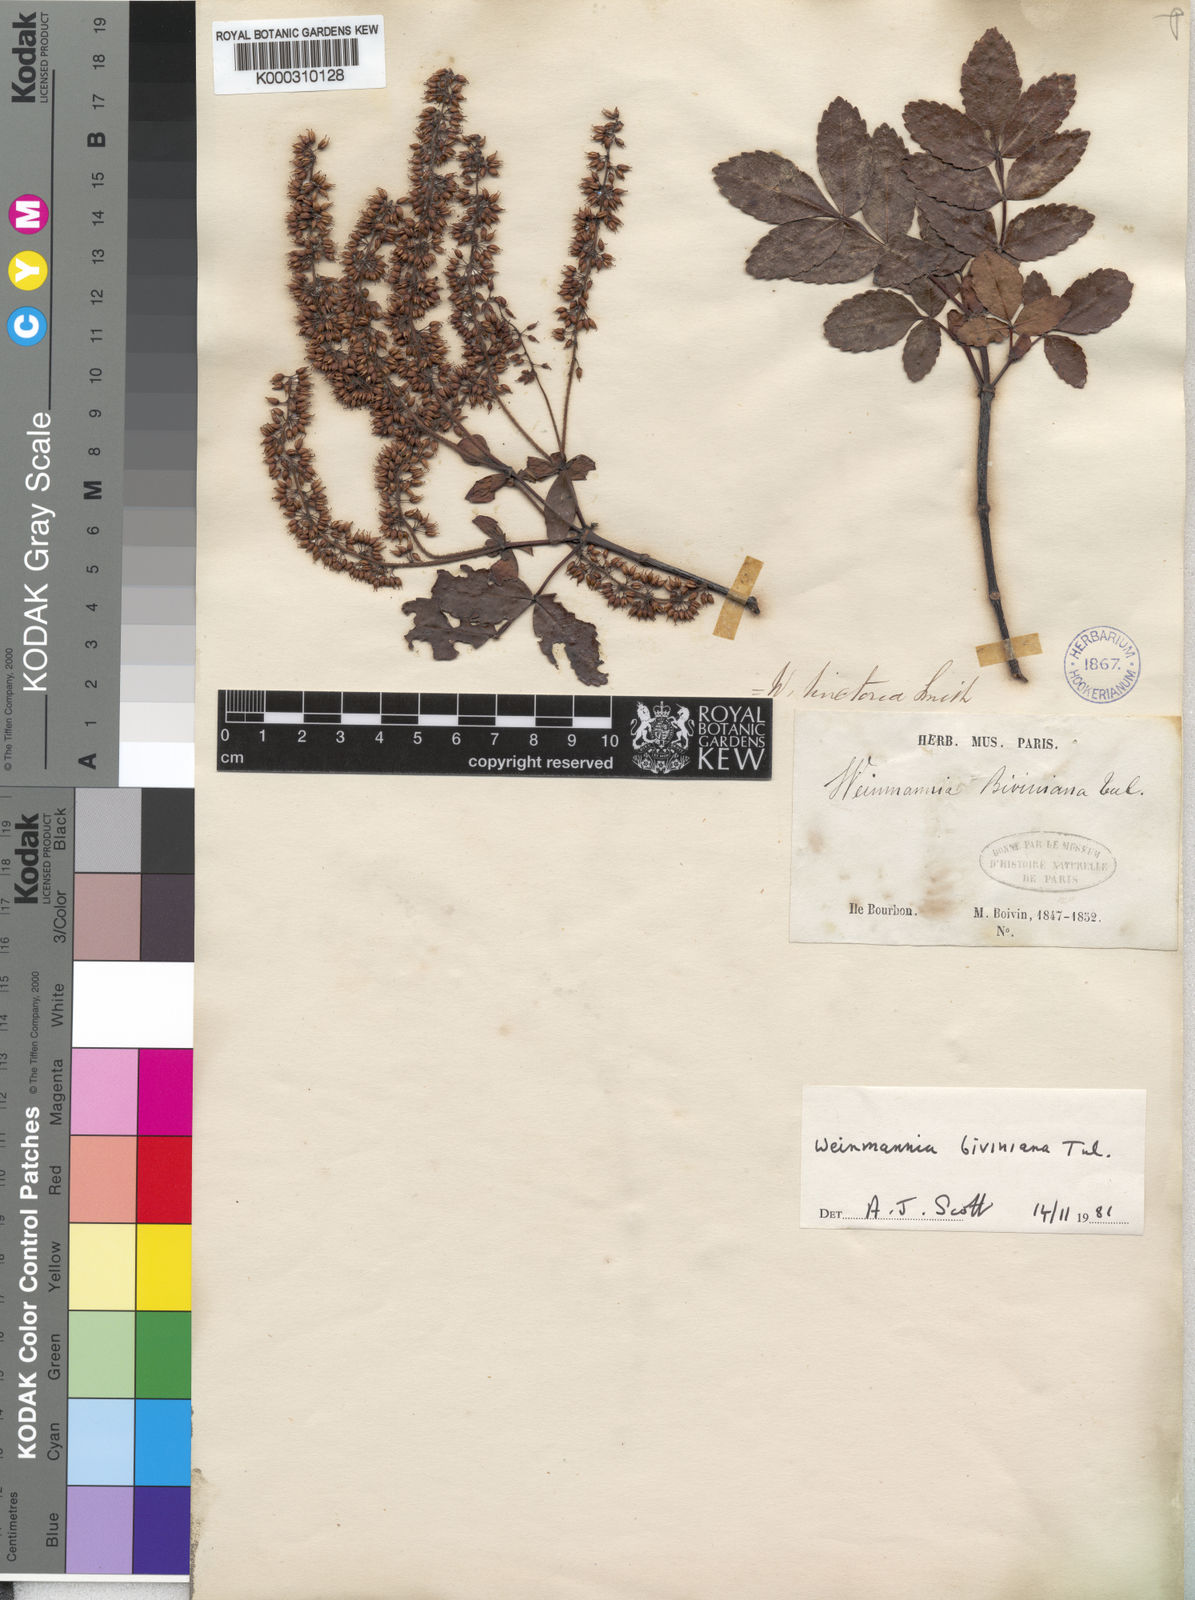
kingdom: Plantae
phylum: Tracheophyta
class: Magnoliopsida
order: Oxalidales
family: Cunoniaceae
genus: Pterophylla
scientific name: Pterophylla humblotii
